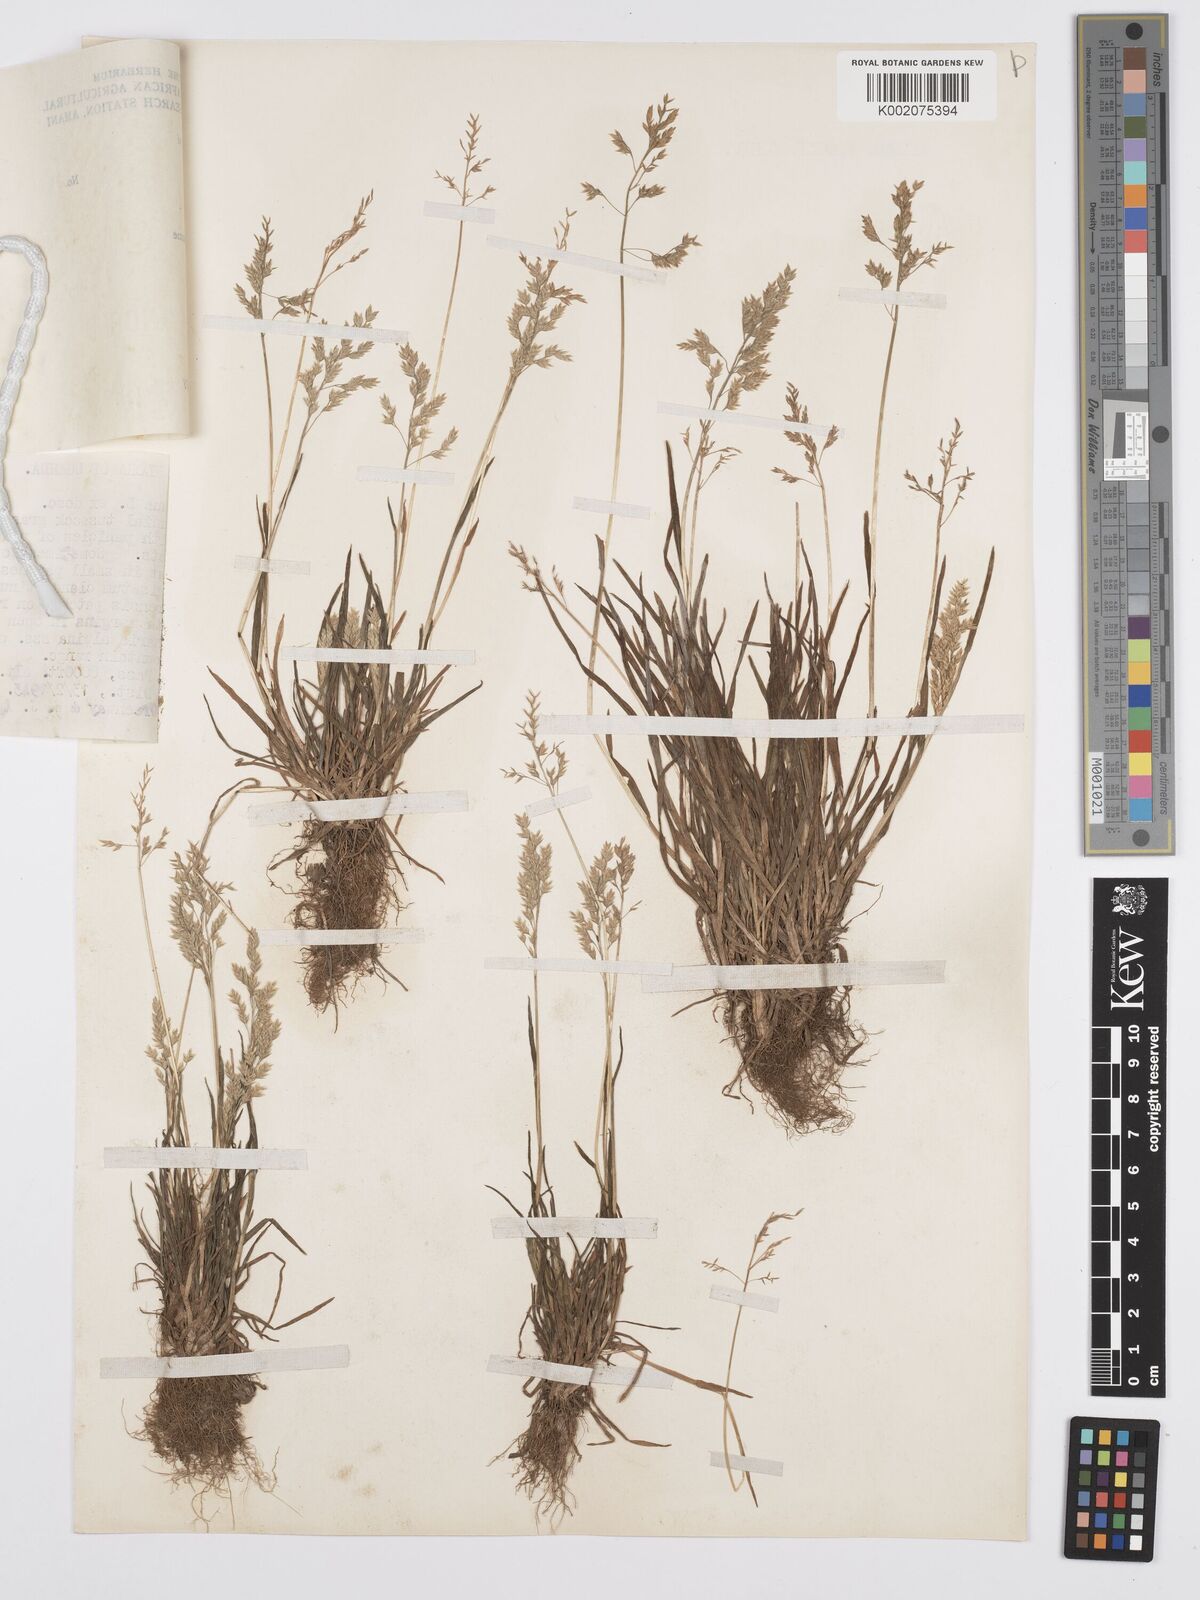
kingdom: Plantae
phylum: Tracheophyta
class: Liliopsida
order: Poales
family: Poaceae
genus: Poa
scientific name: Poa annua
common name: Annual bluegrass
